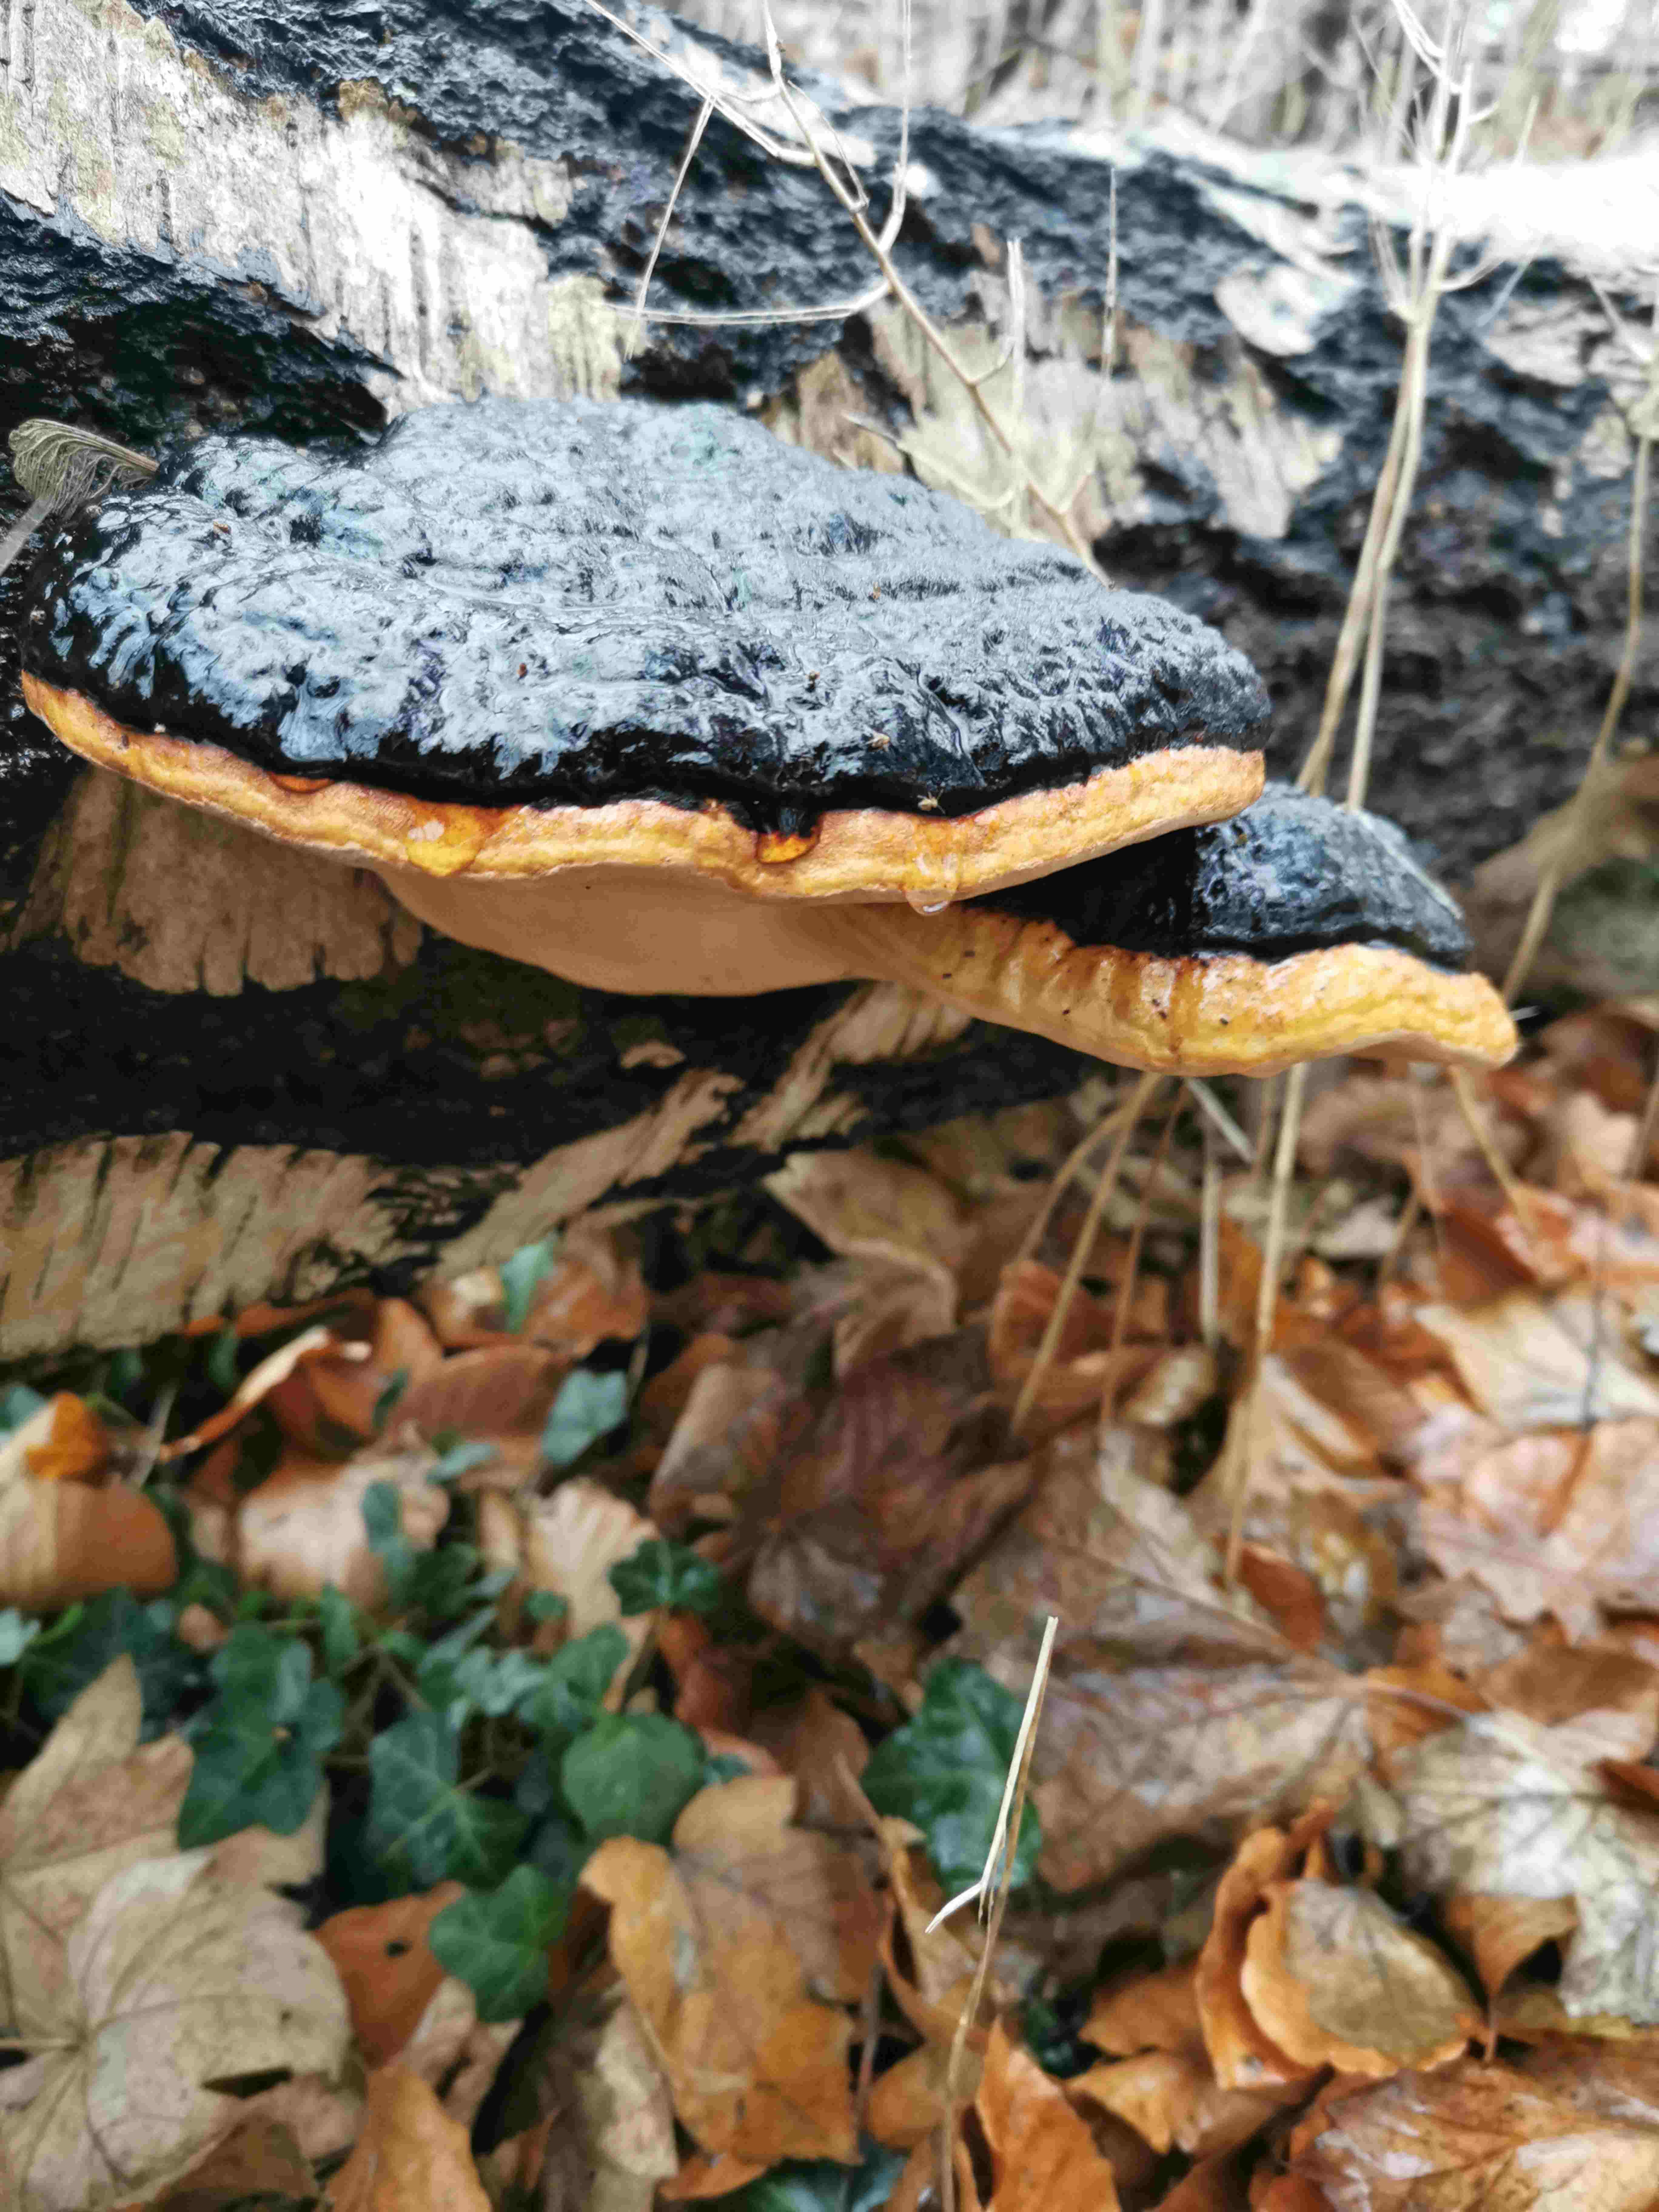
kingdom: Fungi
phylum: Basidiomycota
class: Agaricomycetes
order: Polyporales
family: Fomitopsidaceae
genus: Fomitopsis
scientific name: Fomitopsis pinicola
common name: randbæltet hovporesvamp
